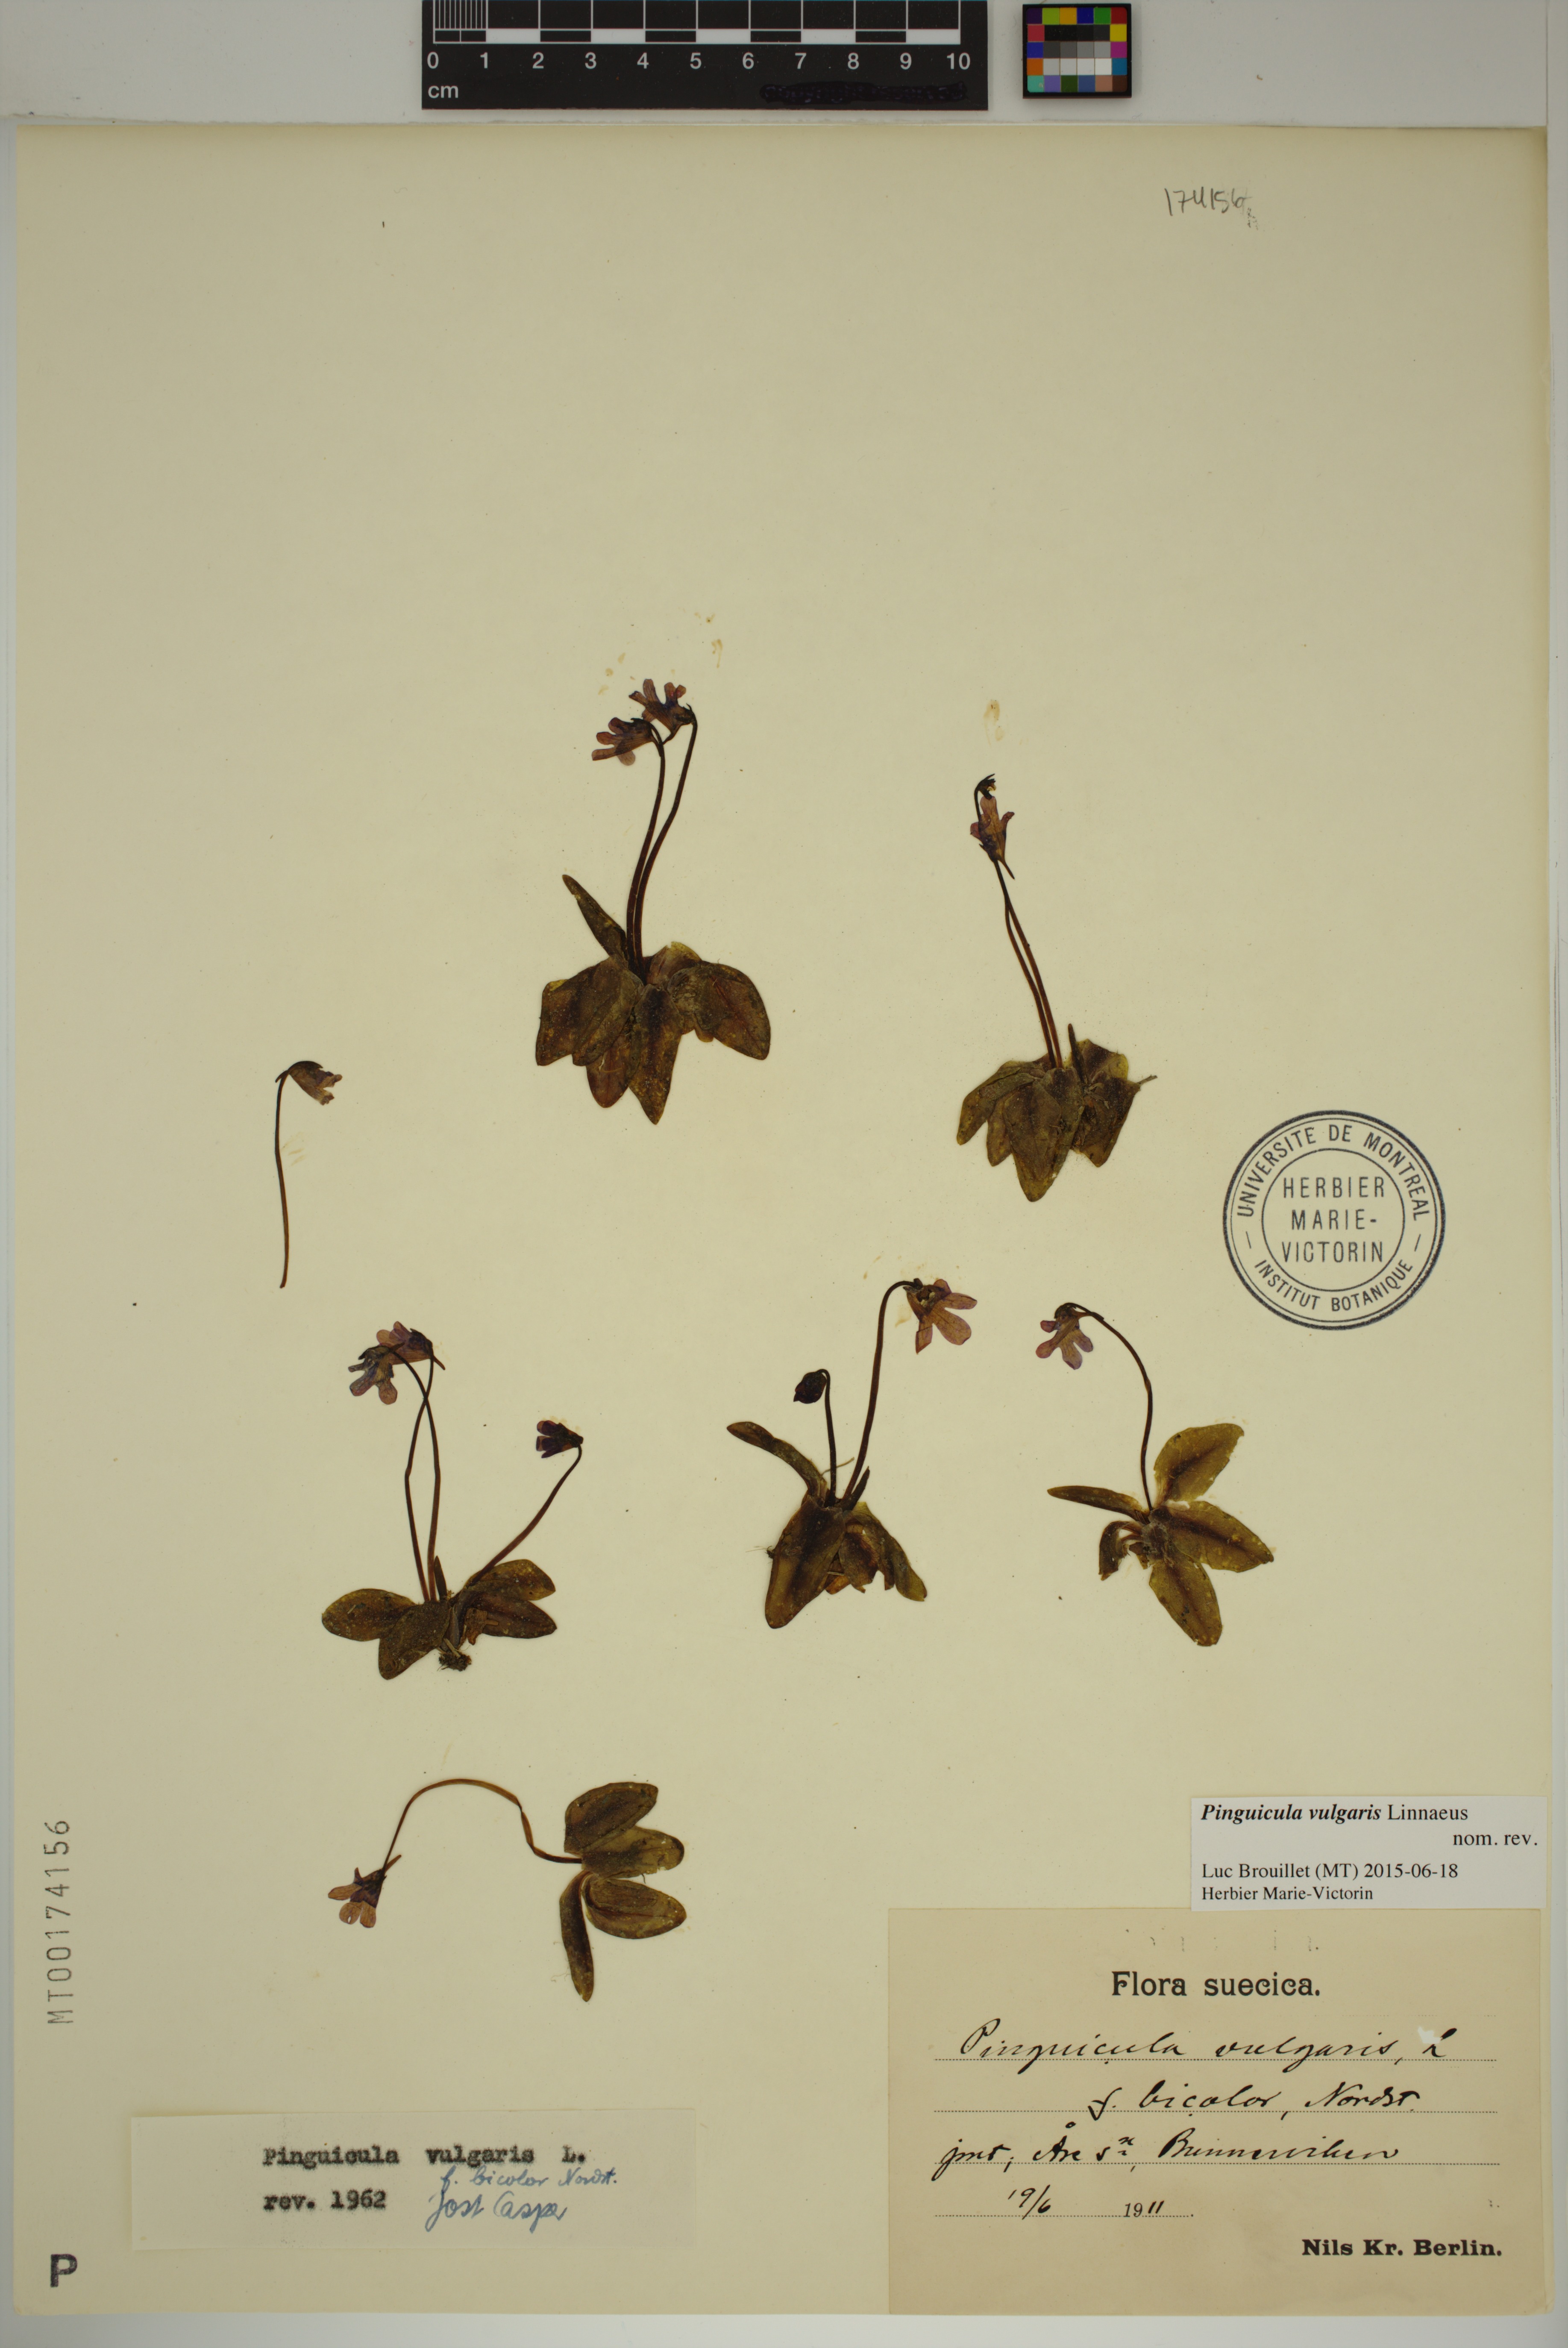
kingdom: Plantae
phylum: Tracheophyta
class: Magnoliopsida
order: Lamiales
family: Lentibulariaceae
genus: Pinguicula
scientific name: Pinguicula vulgaris
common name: Common butterwort
